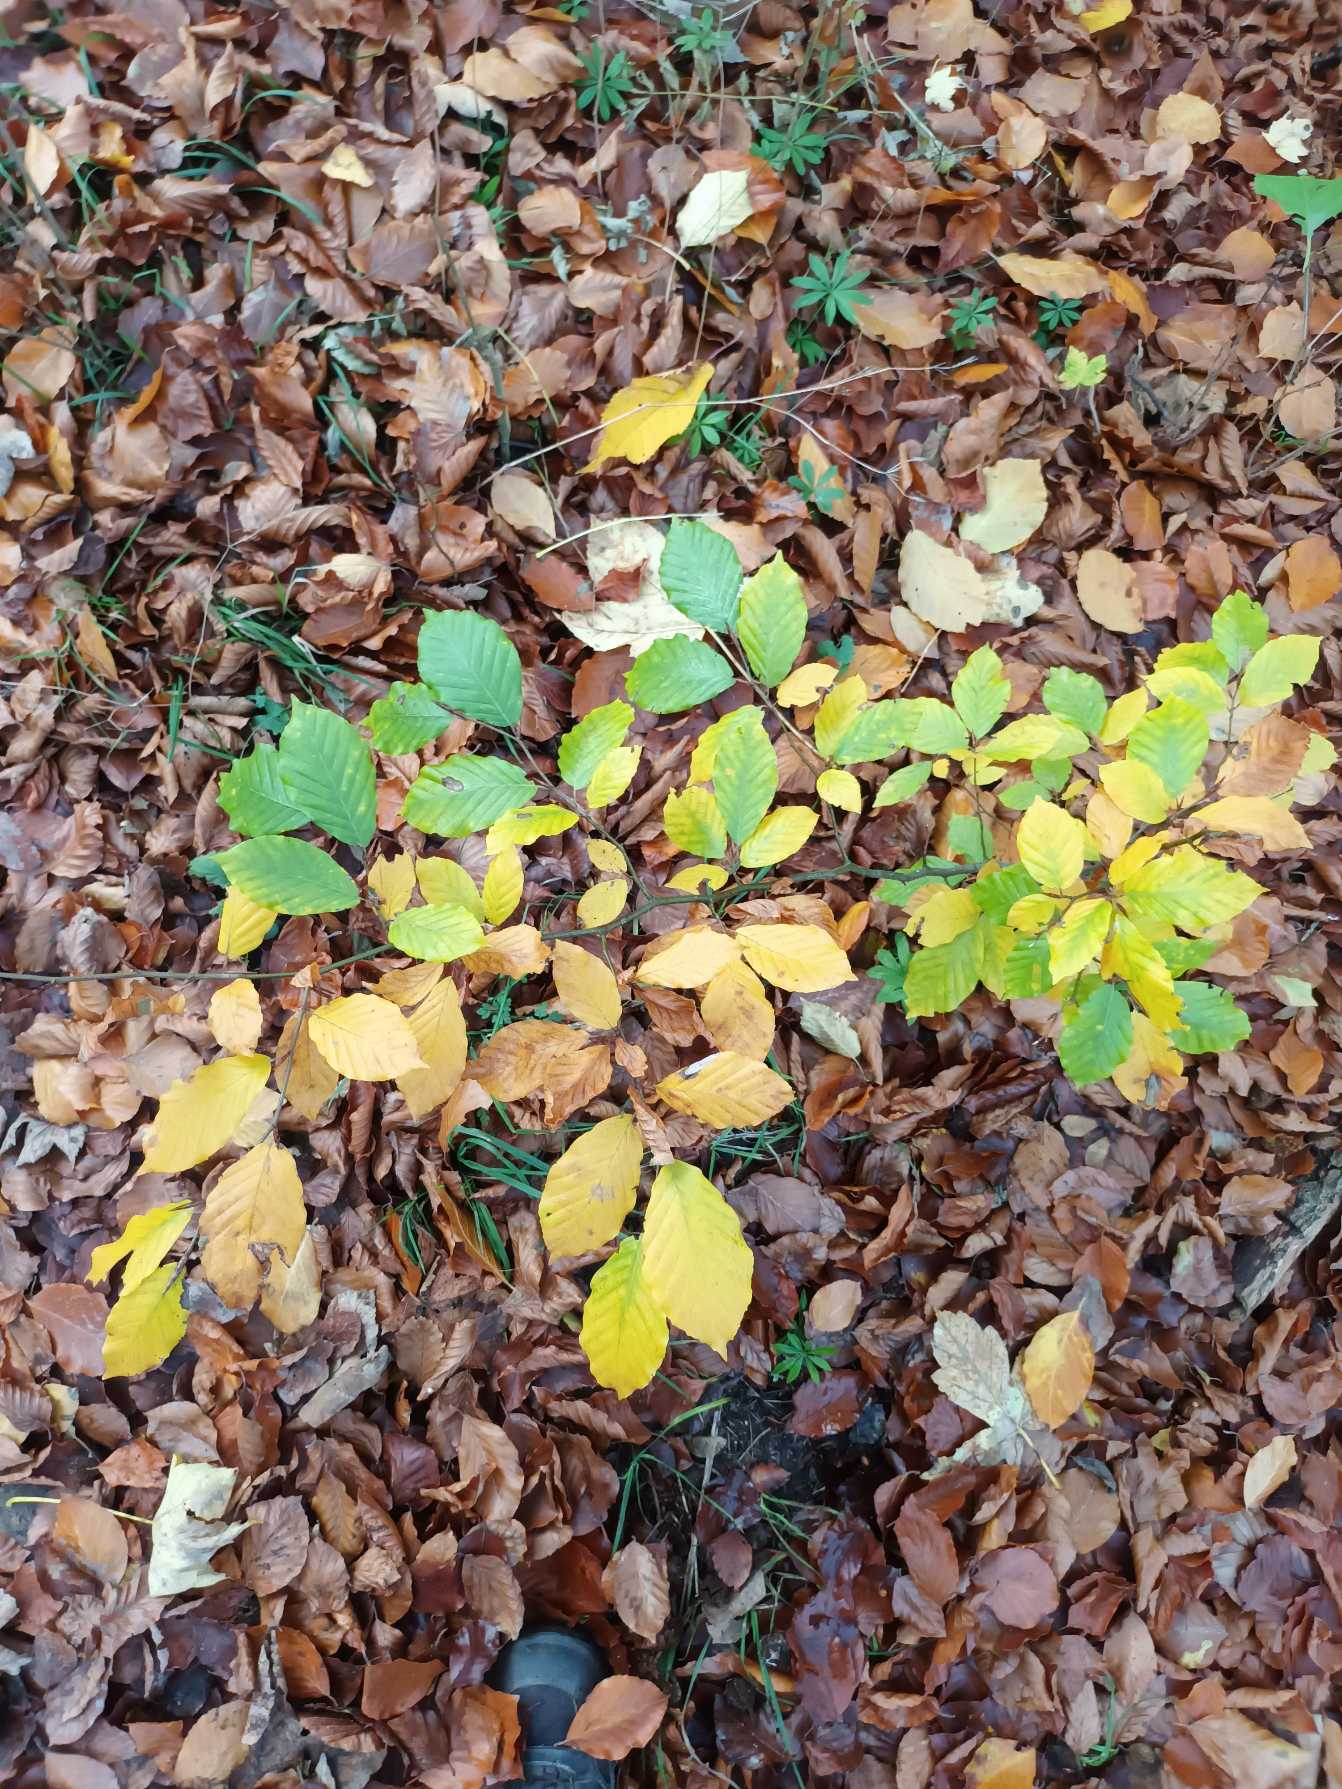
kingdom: Plantae
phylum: Tracheophyta
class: Magnoliopsida
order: Fagales
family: Fagaceae
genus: Fagus
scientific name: Fagus sylvatica
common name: Bøg
